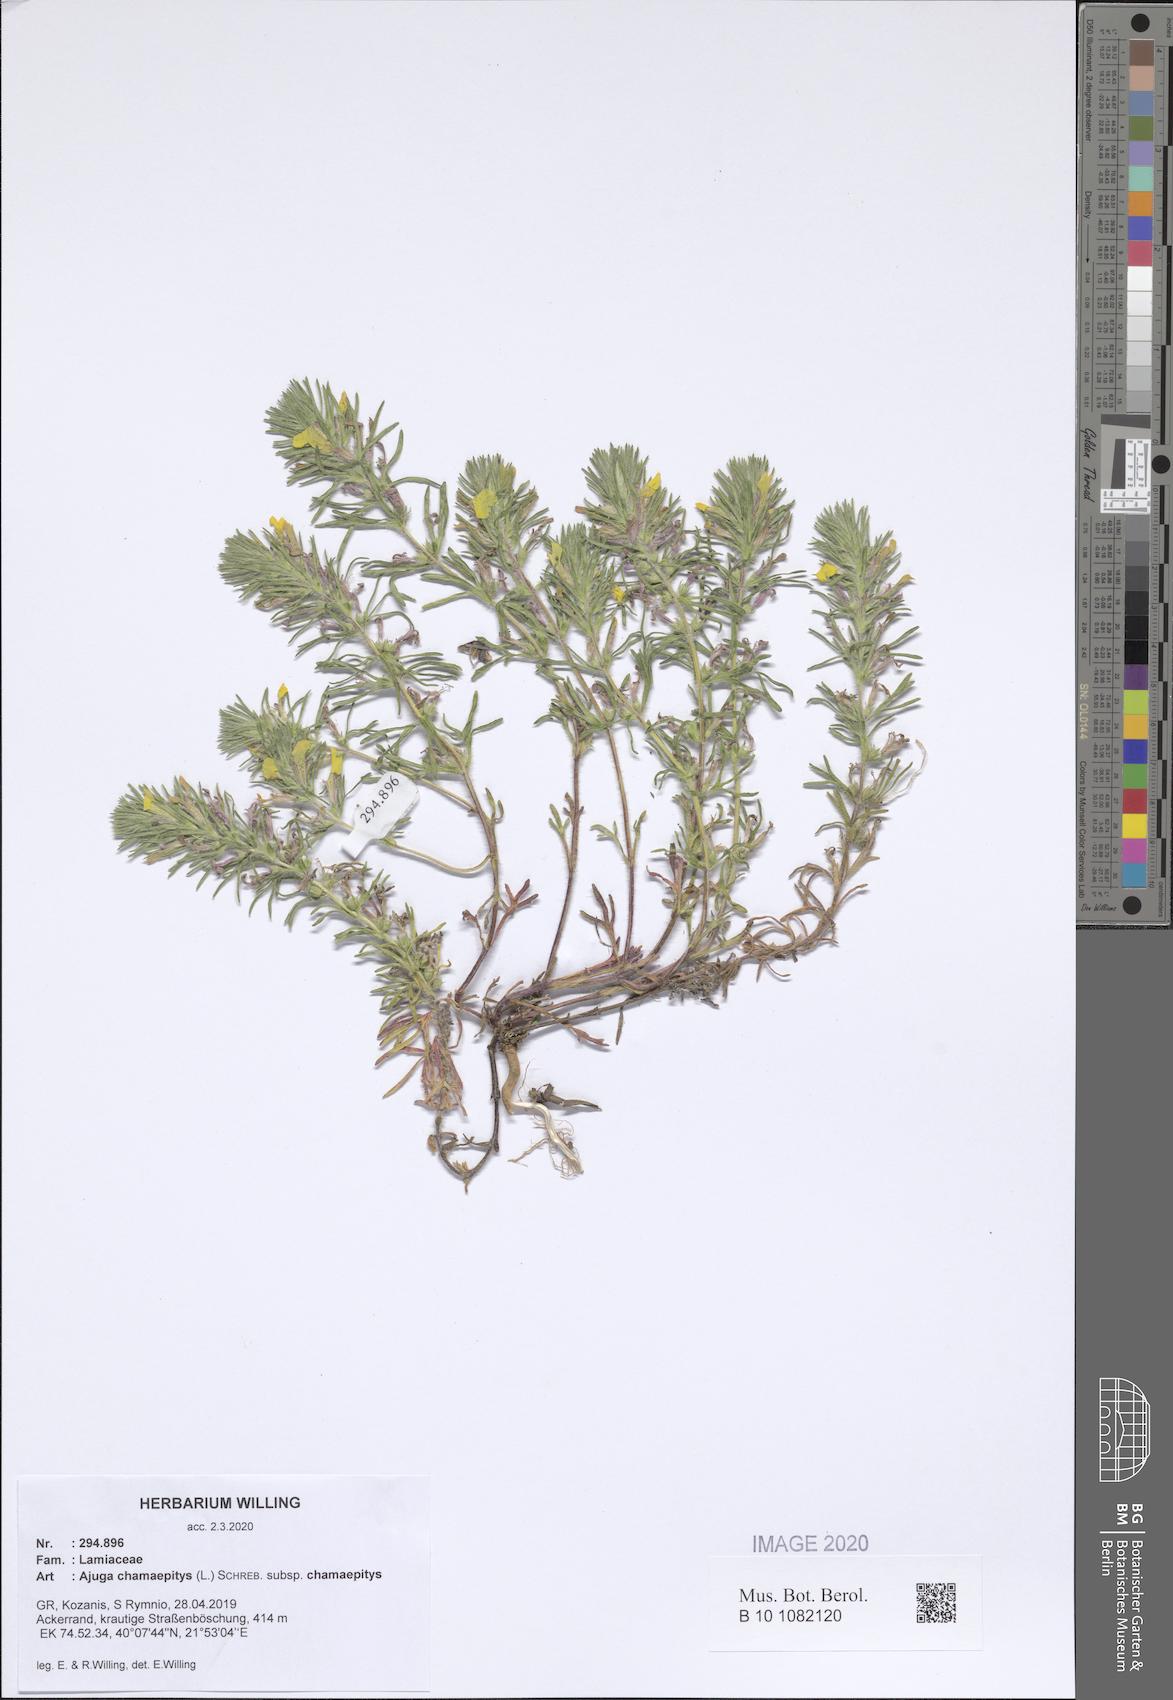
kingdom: Plantae
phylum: Tracheophyta
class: Magnoliopsida
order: Lamiales
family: Lamiaceae
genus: Ajuga
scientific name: Ajuga chamaepitys
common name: Ground-pine
